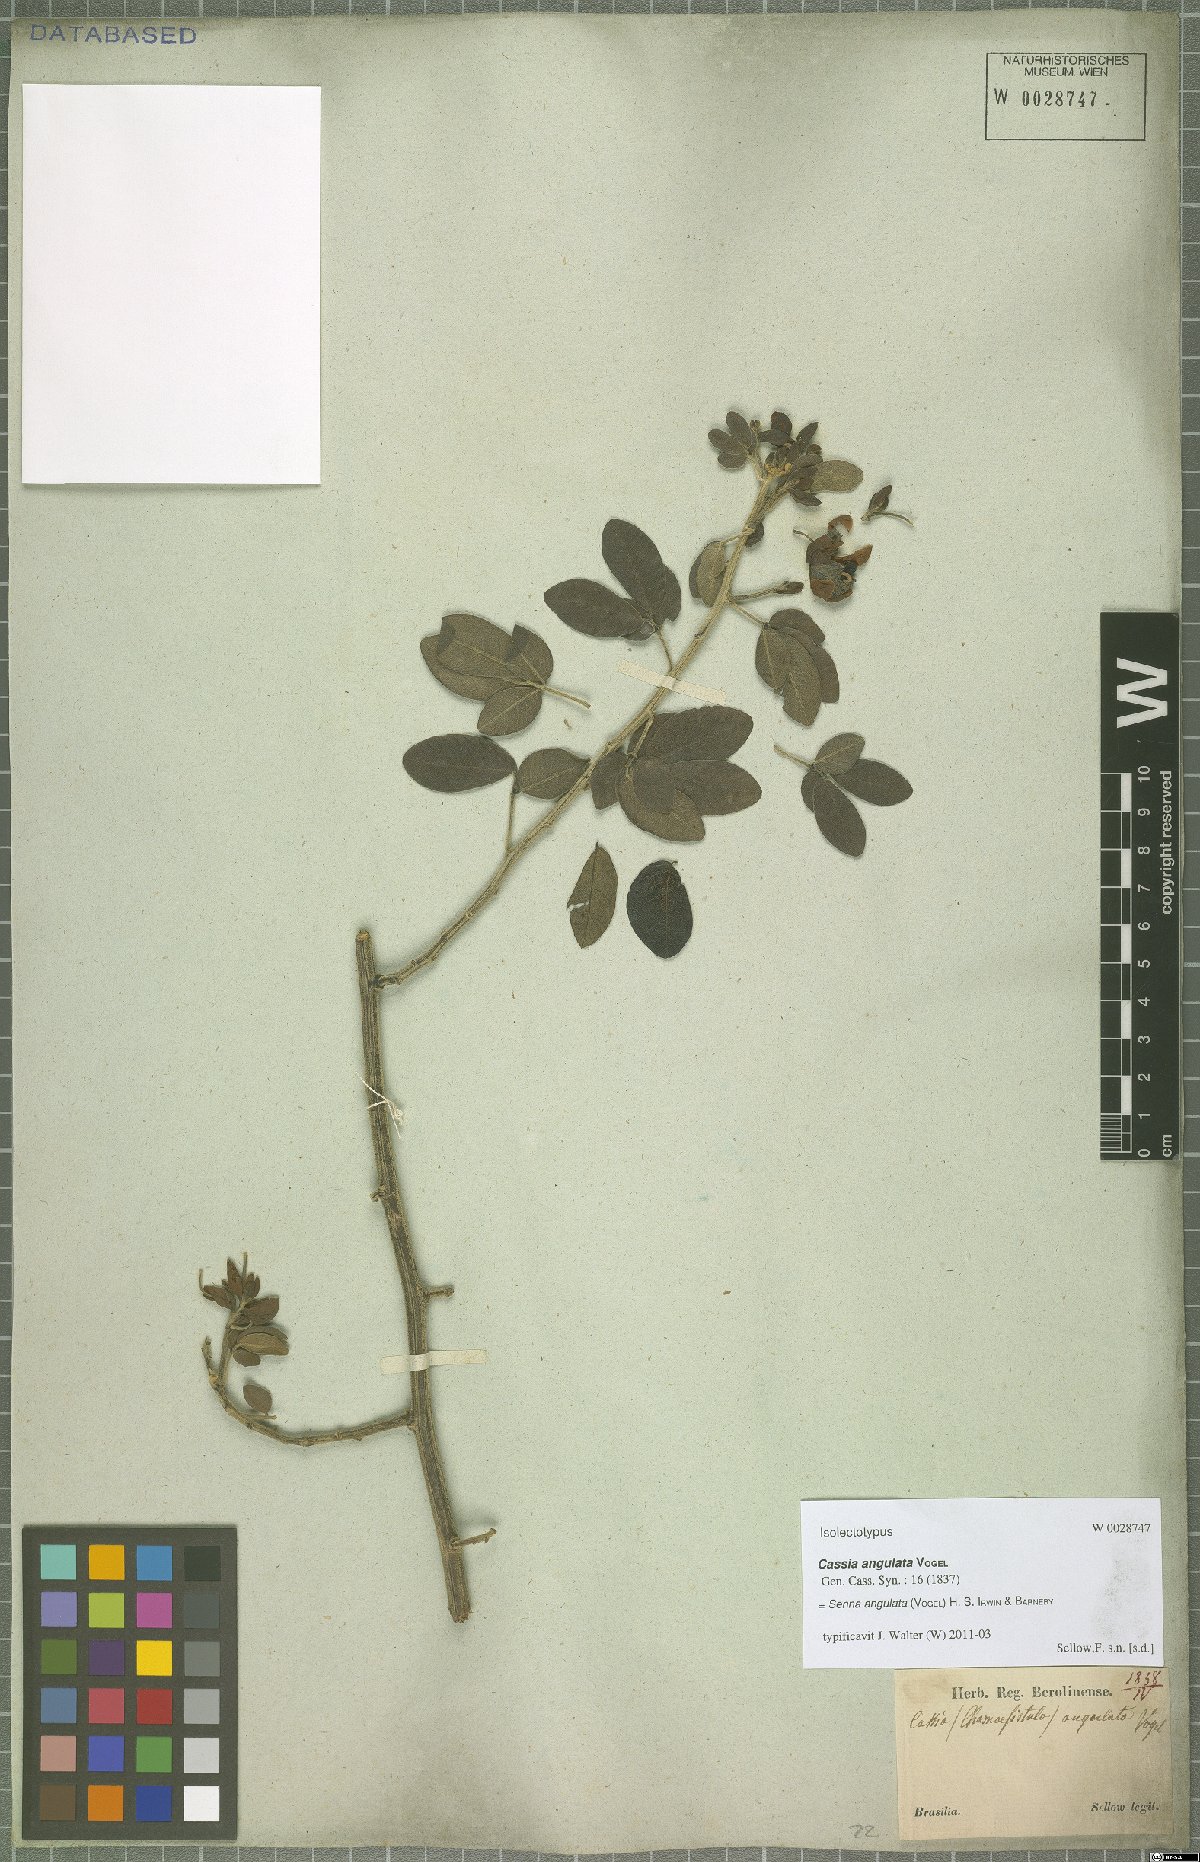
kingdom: Plantae
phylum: Tracheophyta
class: Magnoliopsida
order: Fabales
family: Fabaceae
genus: Senna
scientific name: Senna angulata
